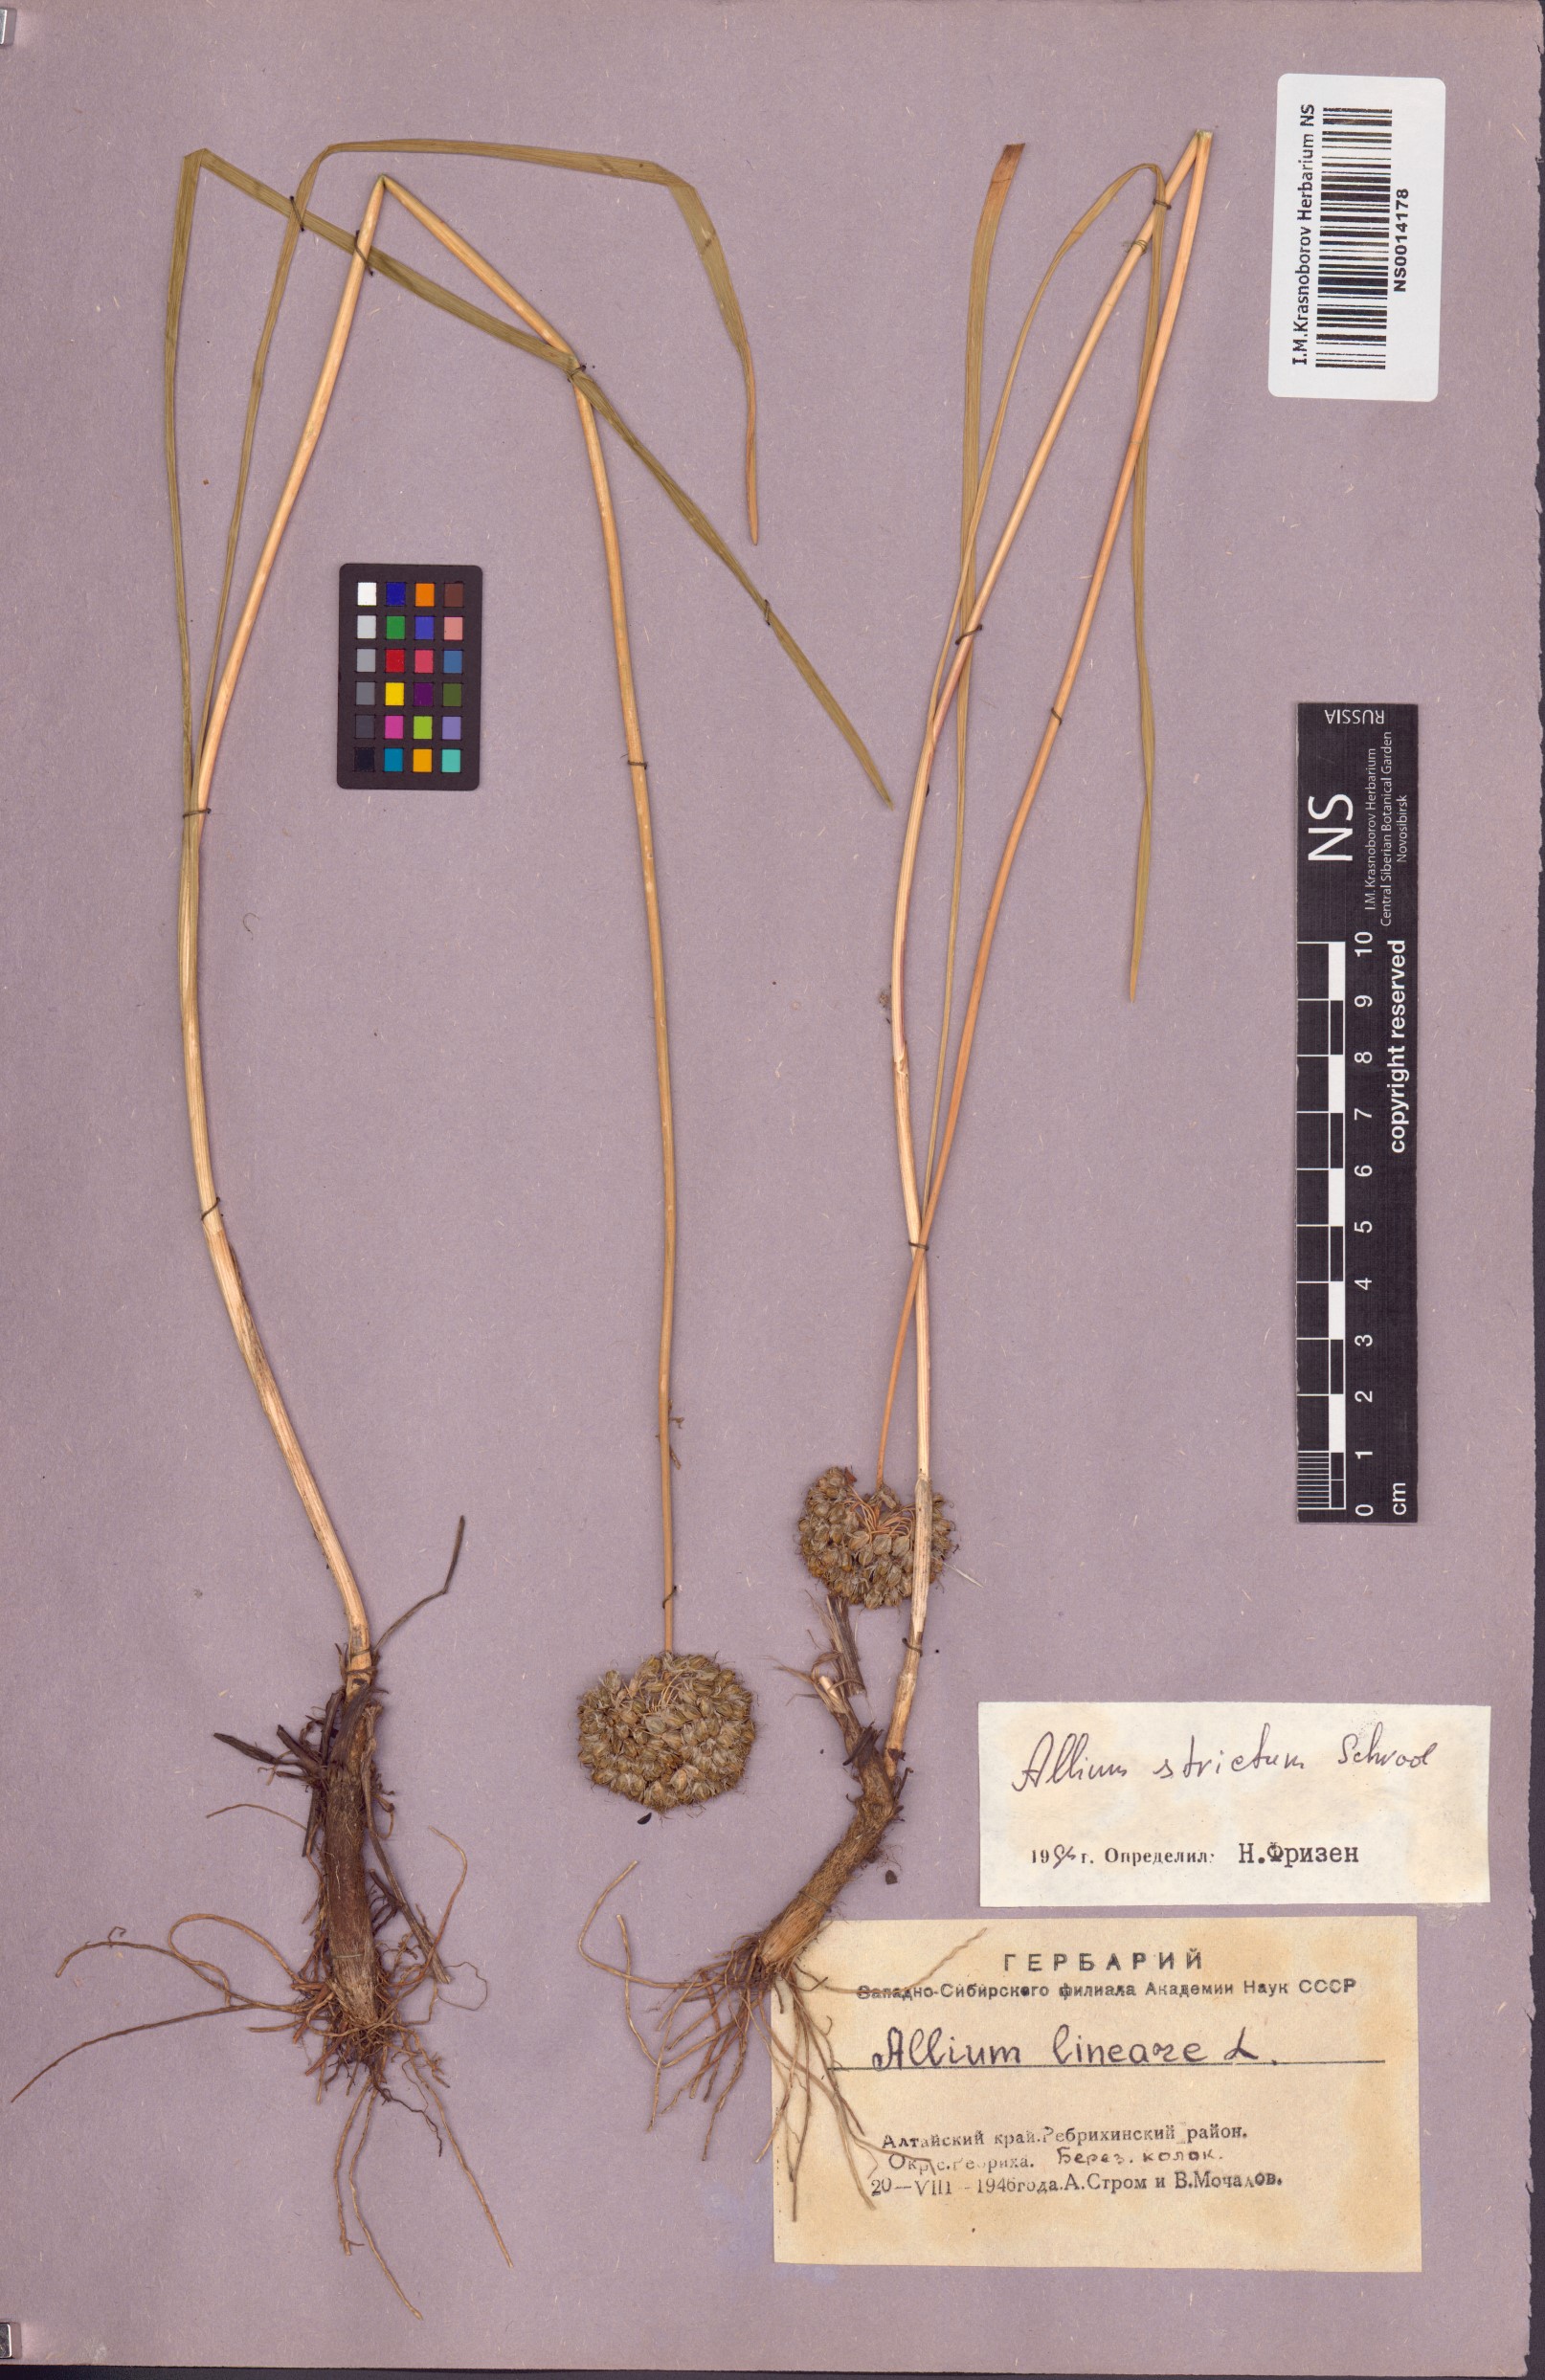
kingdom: Plantae
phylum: Tracheophyta
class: Liliopsida
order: Asparagales
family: Amaryllidaceae
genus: Allium
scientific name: Allium strictum
